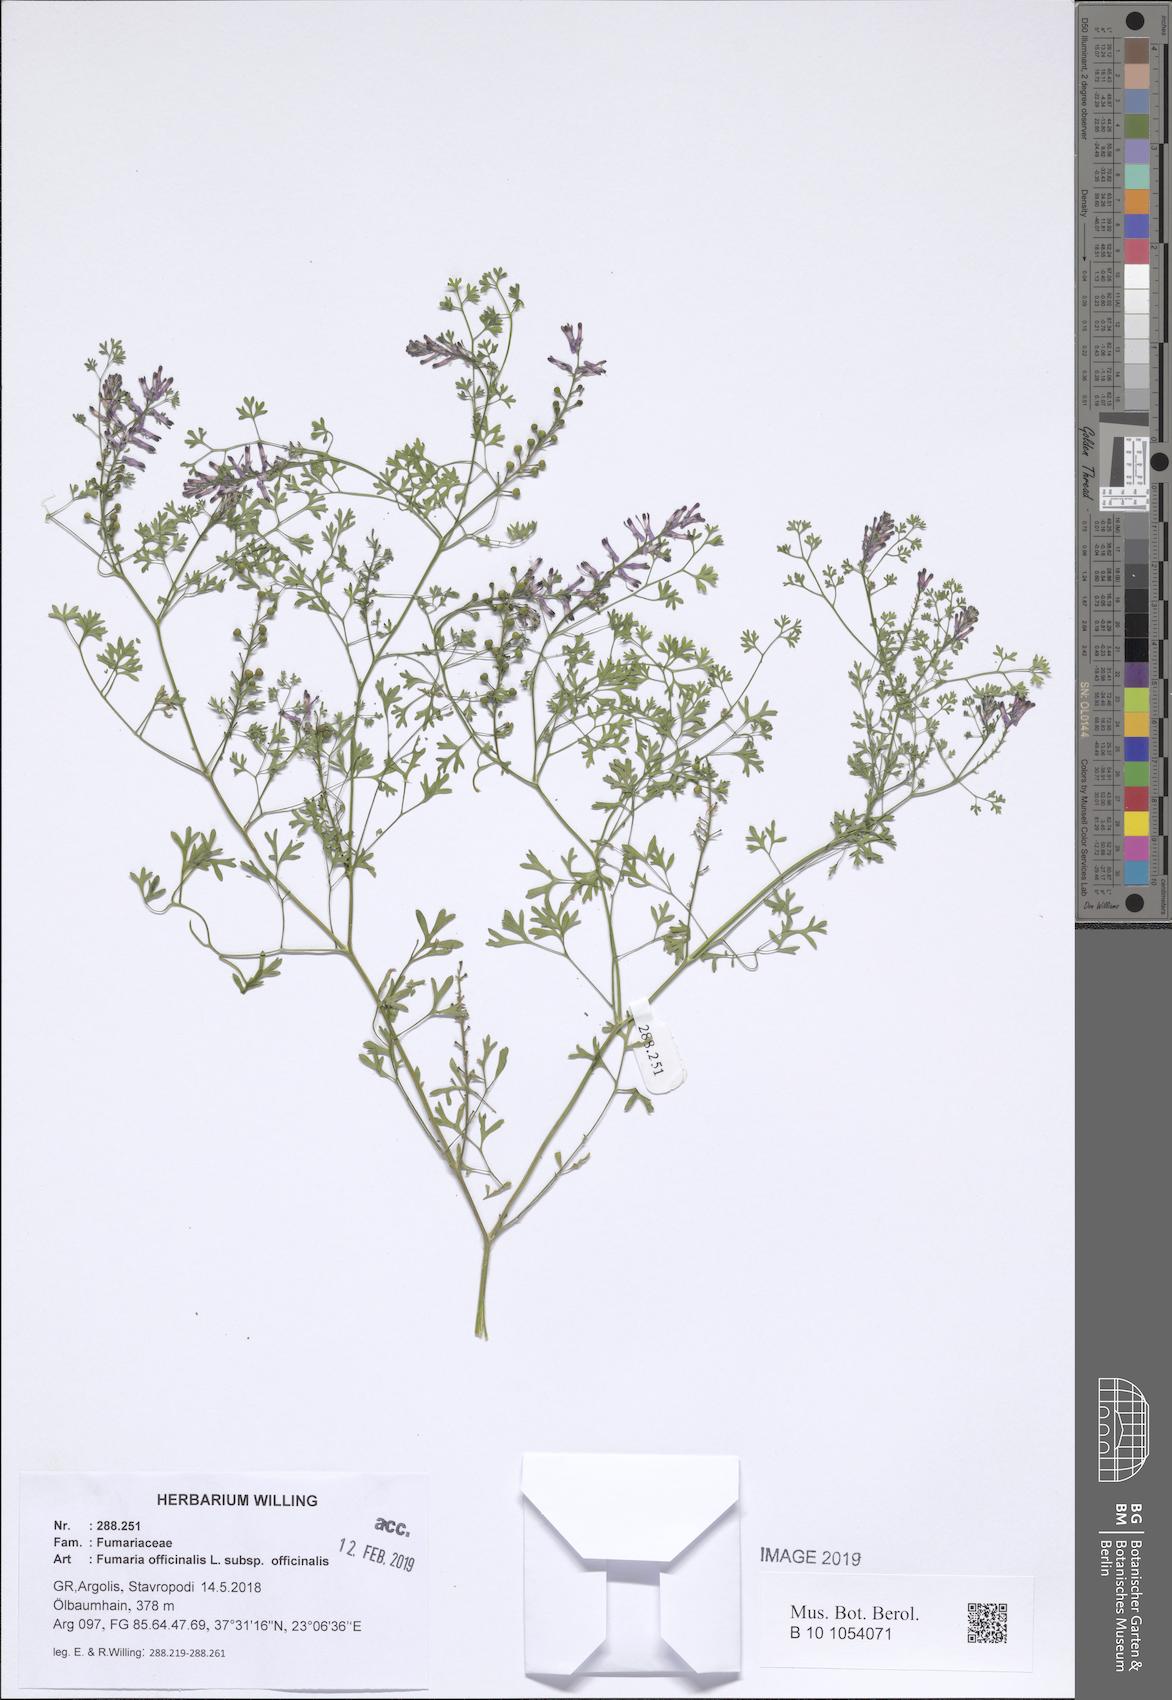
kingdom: Plantae
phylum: Tracheophyta
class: Magnoliopsida
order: Ranunculales
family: Papaveraceae
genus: Fumaria
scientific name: Fumaria officinalis
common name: Common fumitory
